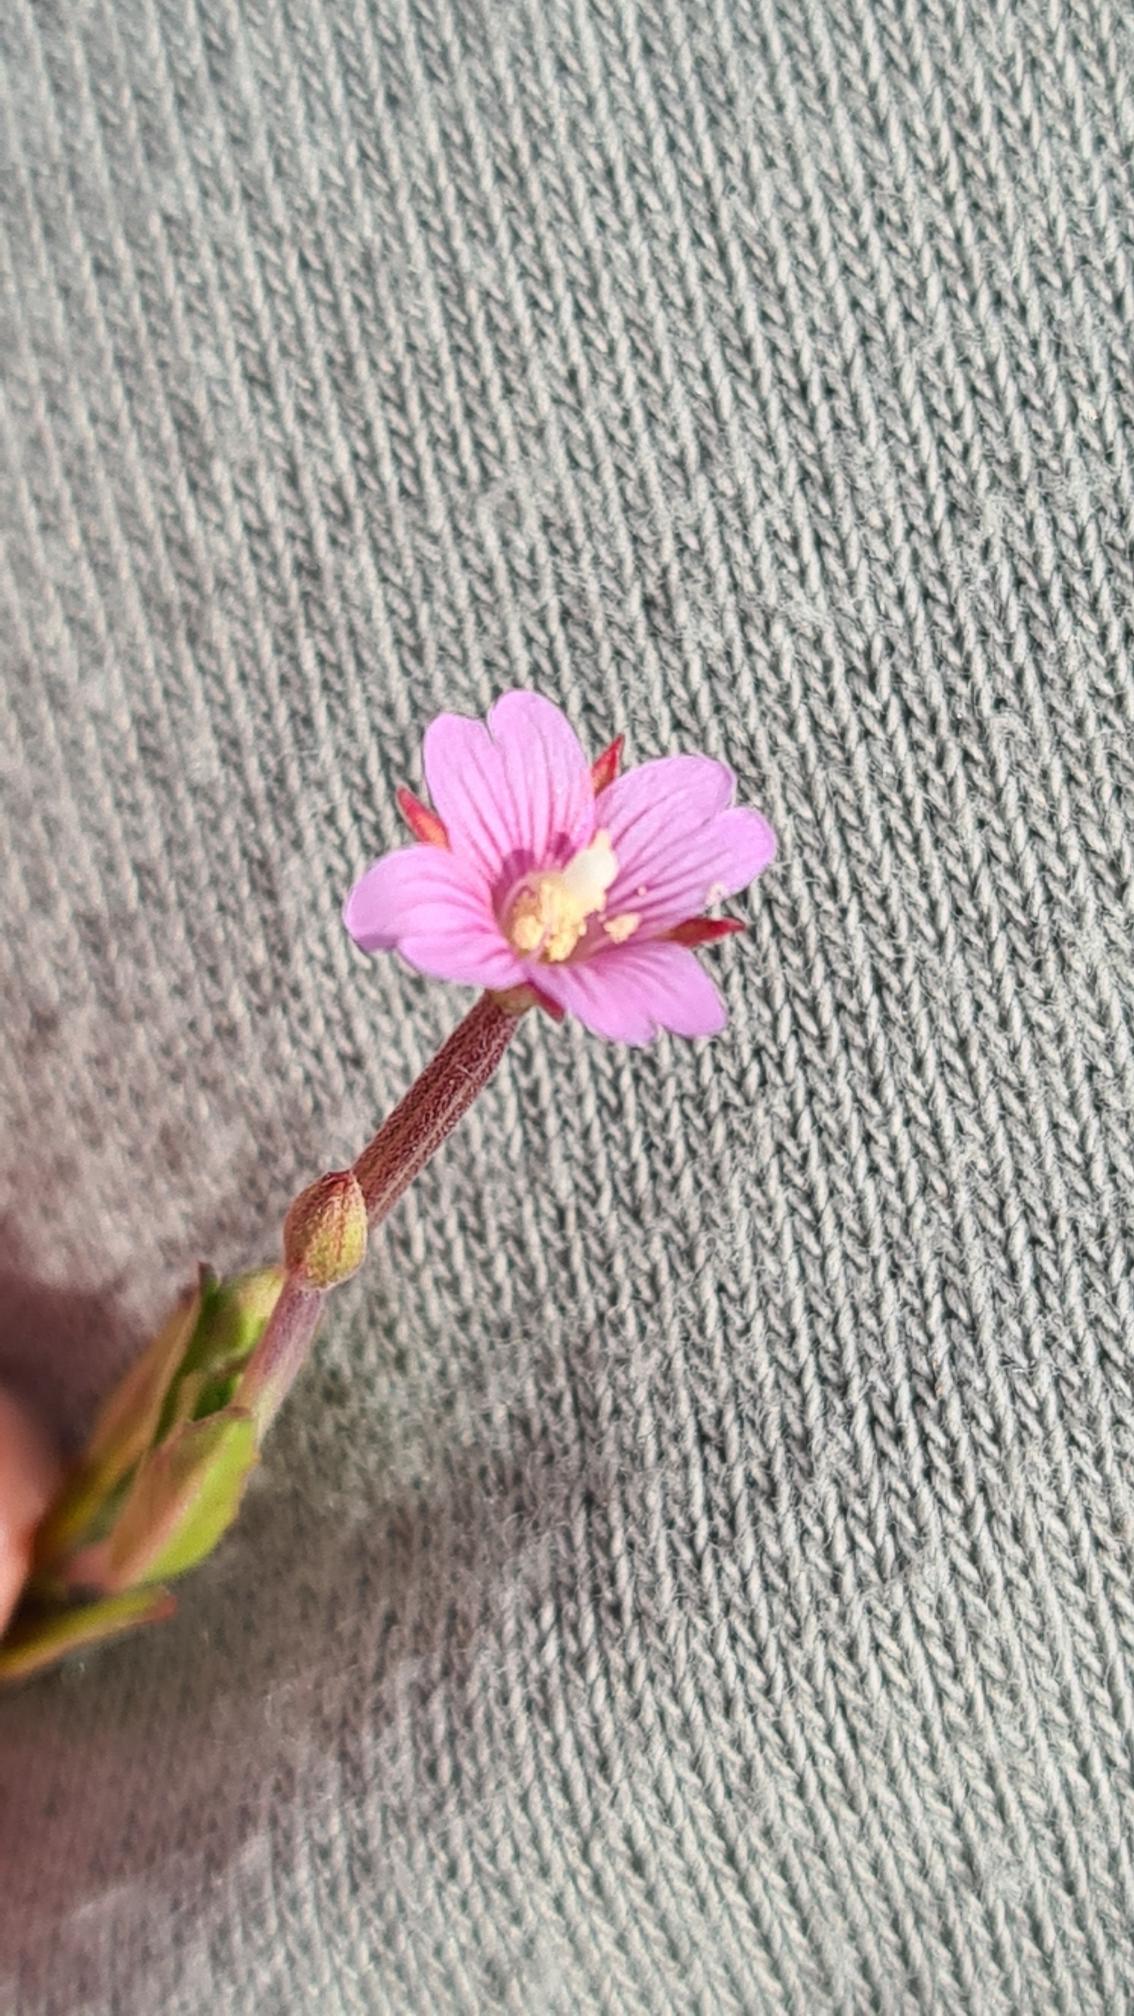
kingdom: Plantae
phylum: Tracheophyta
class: Magnoliopsida
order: Myrtales
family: Onagraceae
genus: Epilobium
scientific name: Epilobium obscurum
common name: Ris-dueurt
